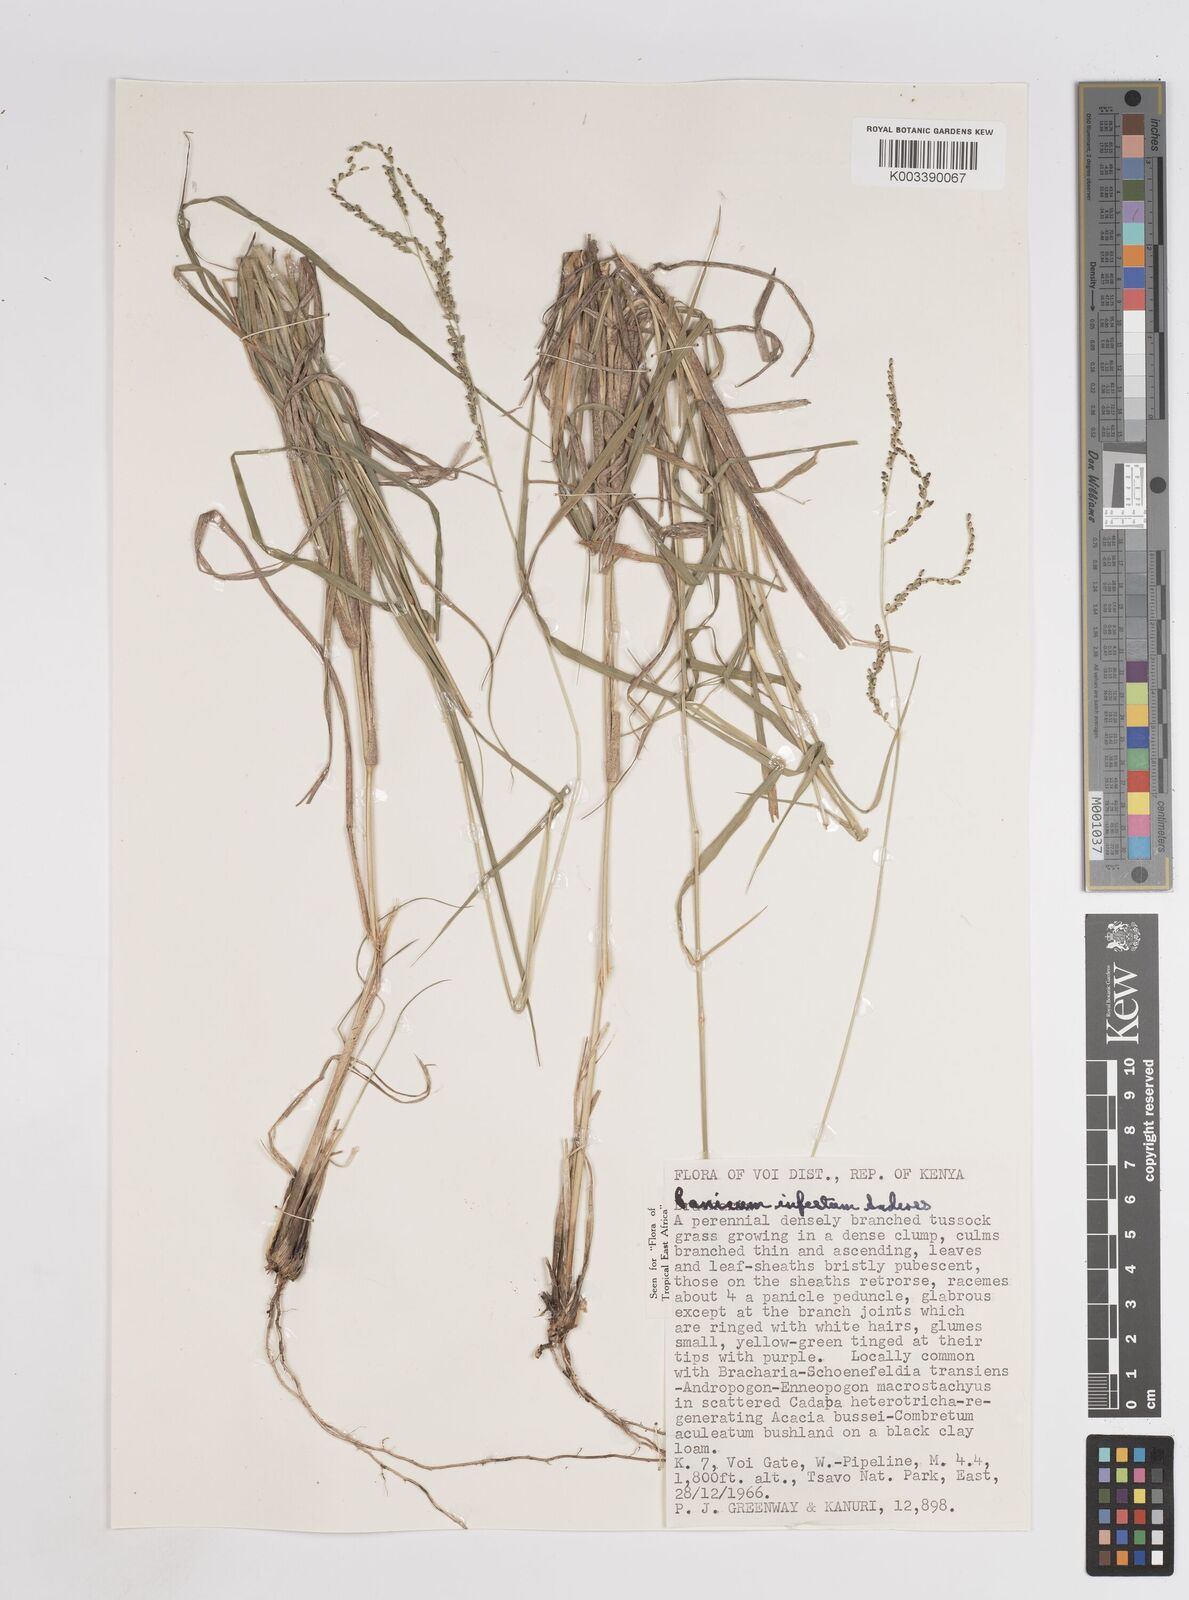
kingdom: Plantae
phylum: Tracheophyta
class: Liliopsida
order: Poales
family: Poaceae
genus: Megathyrsus
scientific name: Megathyrsus infestus
